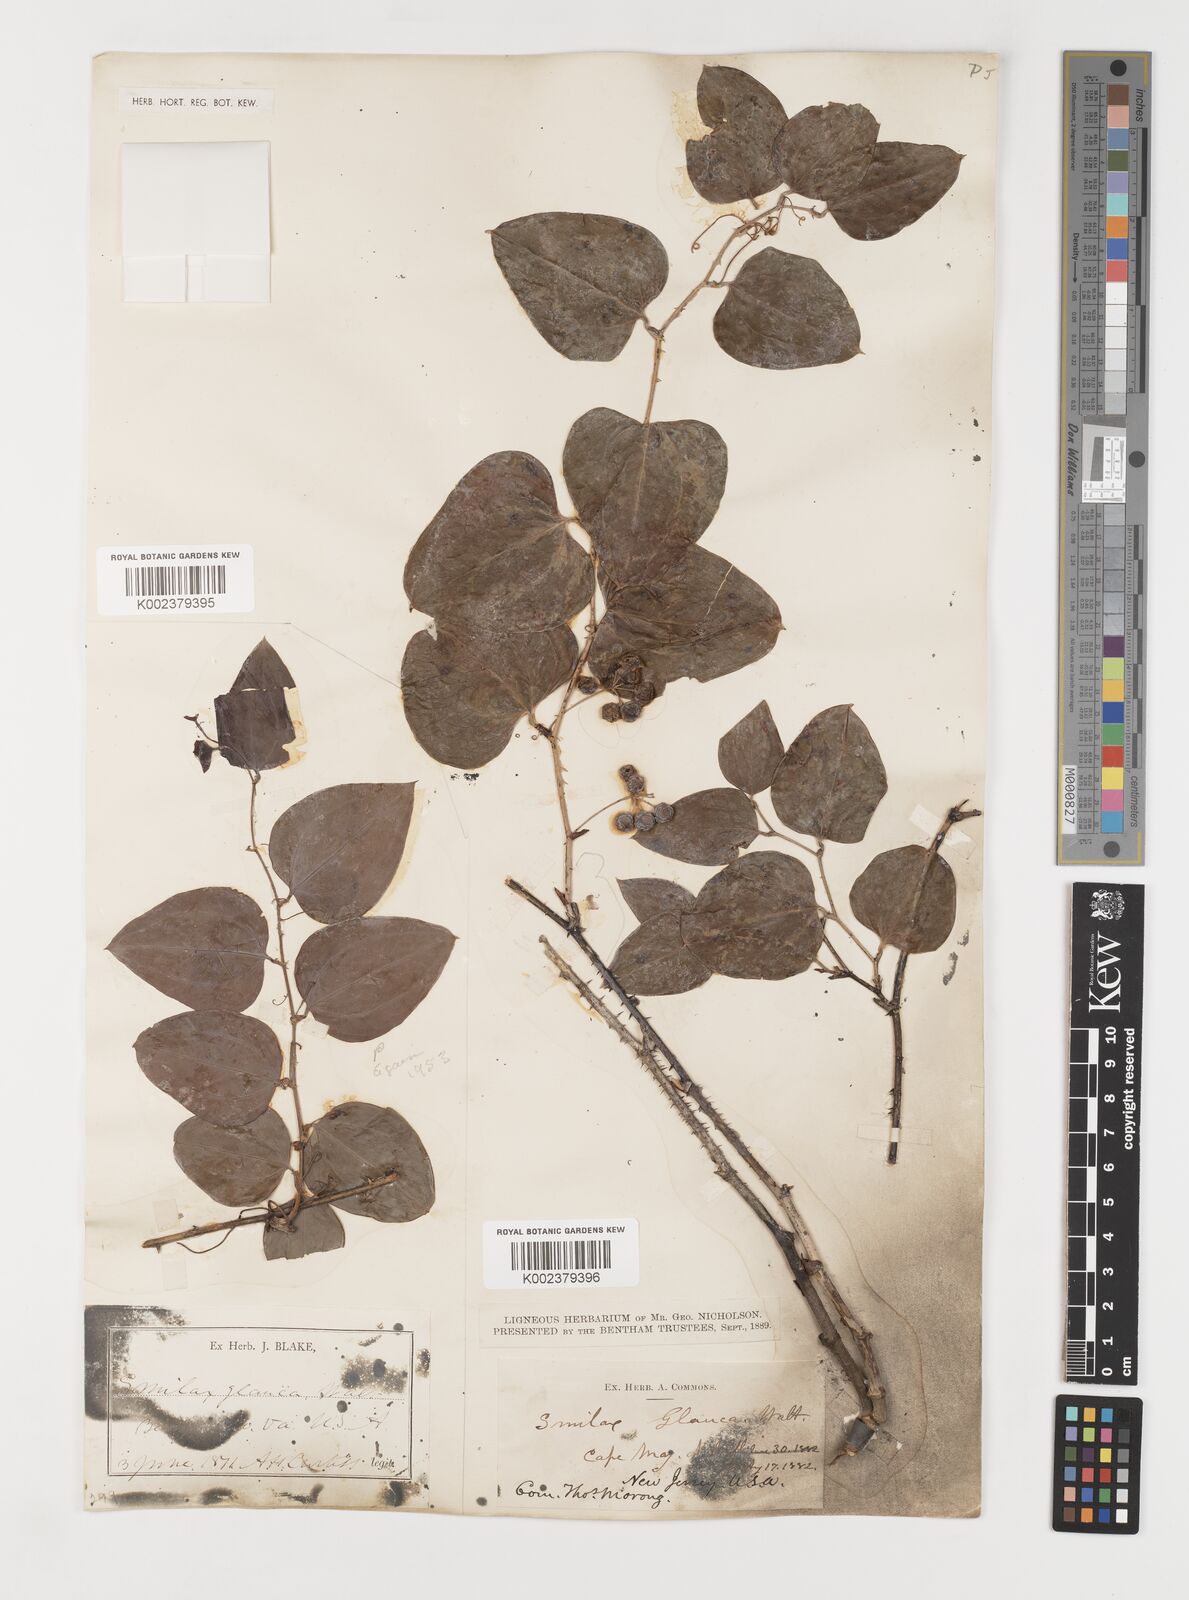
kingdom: Plantae
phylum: Tracheophyta
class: Liliopsida
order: Liliales
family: Smilacaceae
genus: Smilax
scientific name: Smilax glauca
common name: Cat greenbrier
